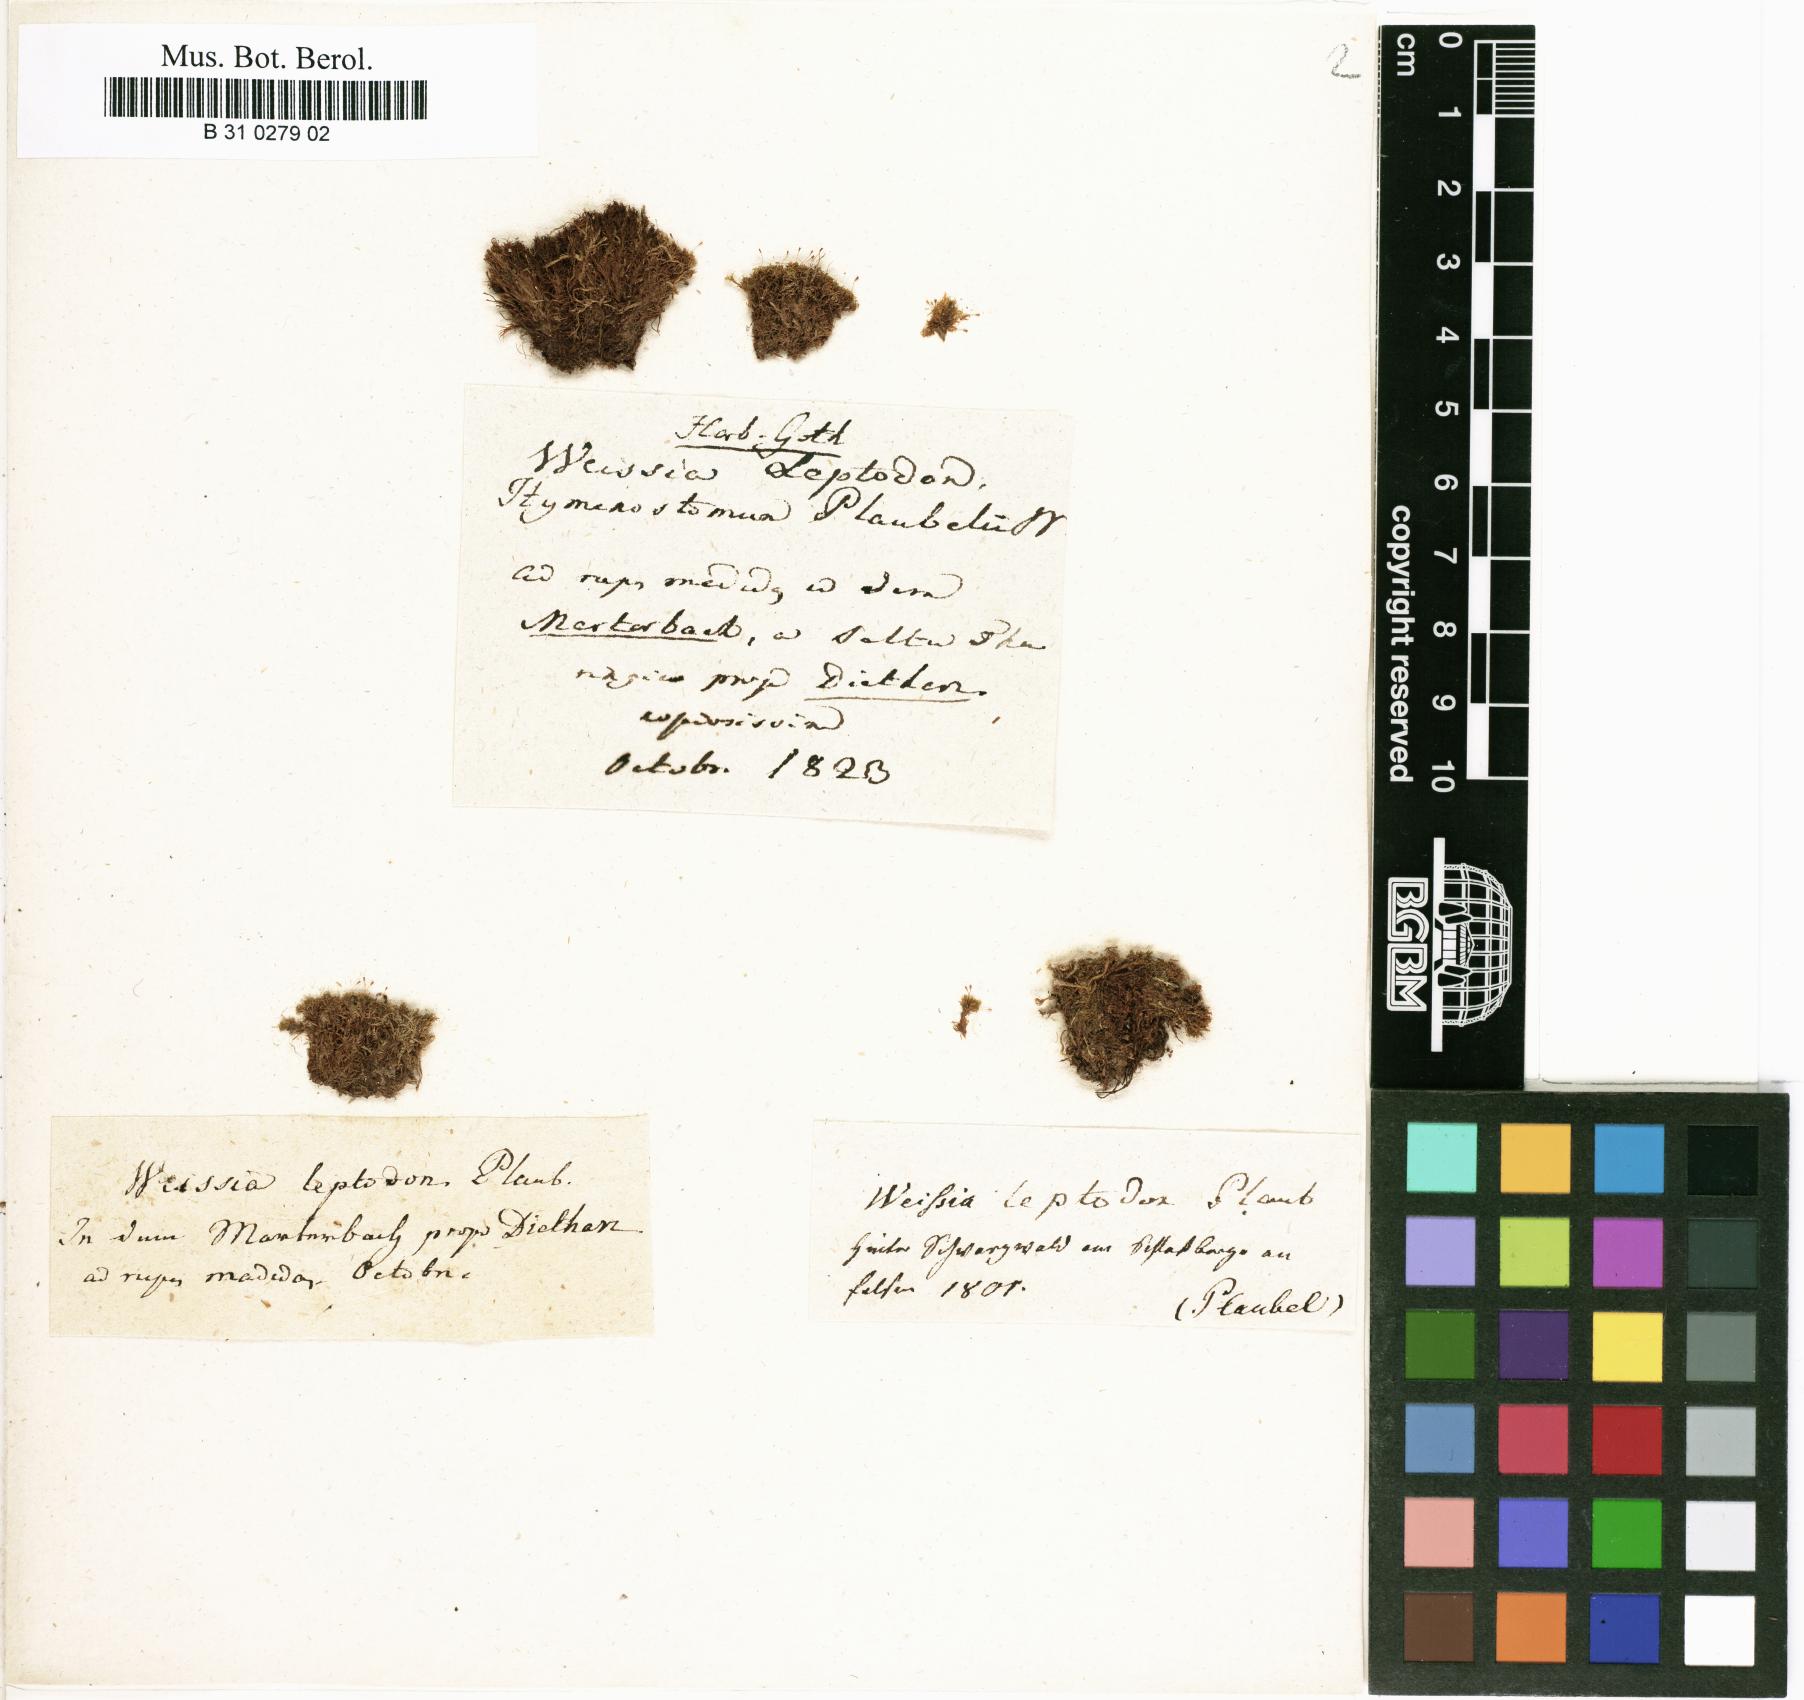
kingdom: Plantae
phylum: Bryophyta
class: Bryopsida
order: Dicranales
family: Rhabdoweisiaceae
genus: Rhabdoweisia
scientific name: Rhabdoweisia fugax
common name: Dwarf streak-moss
